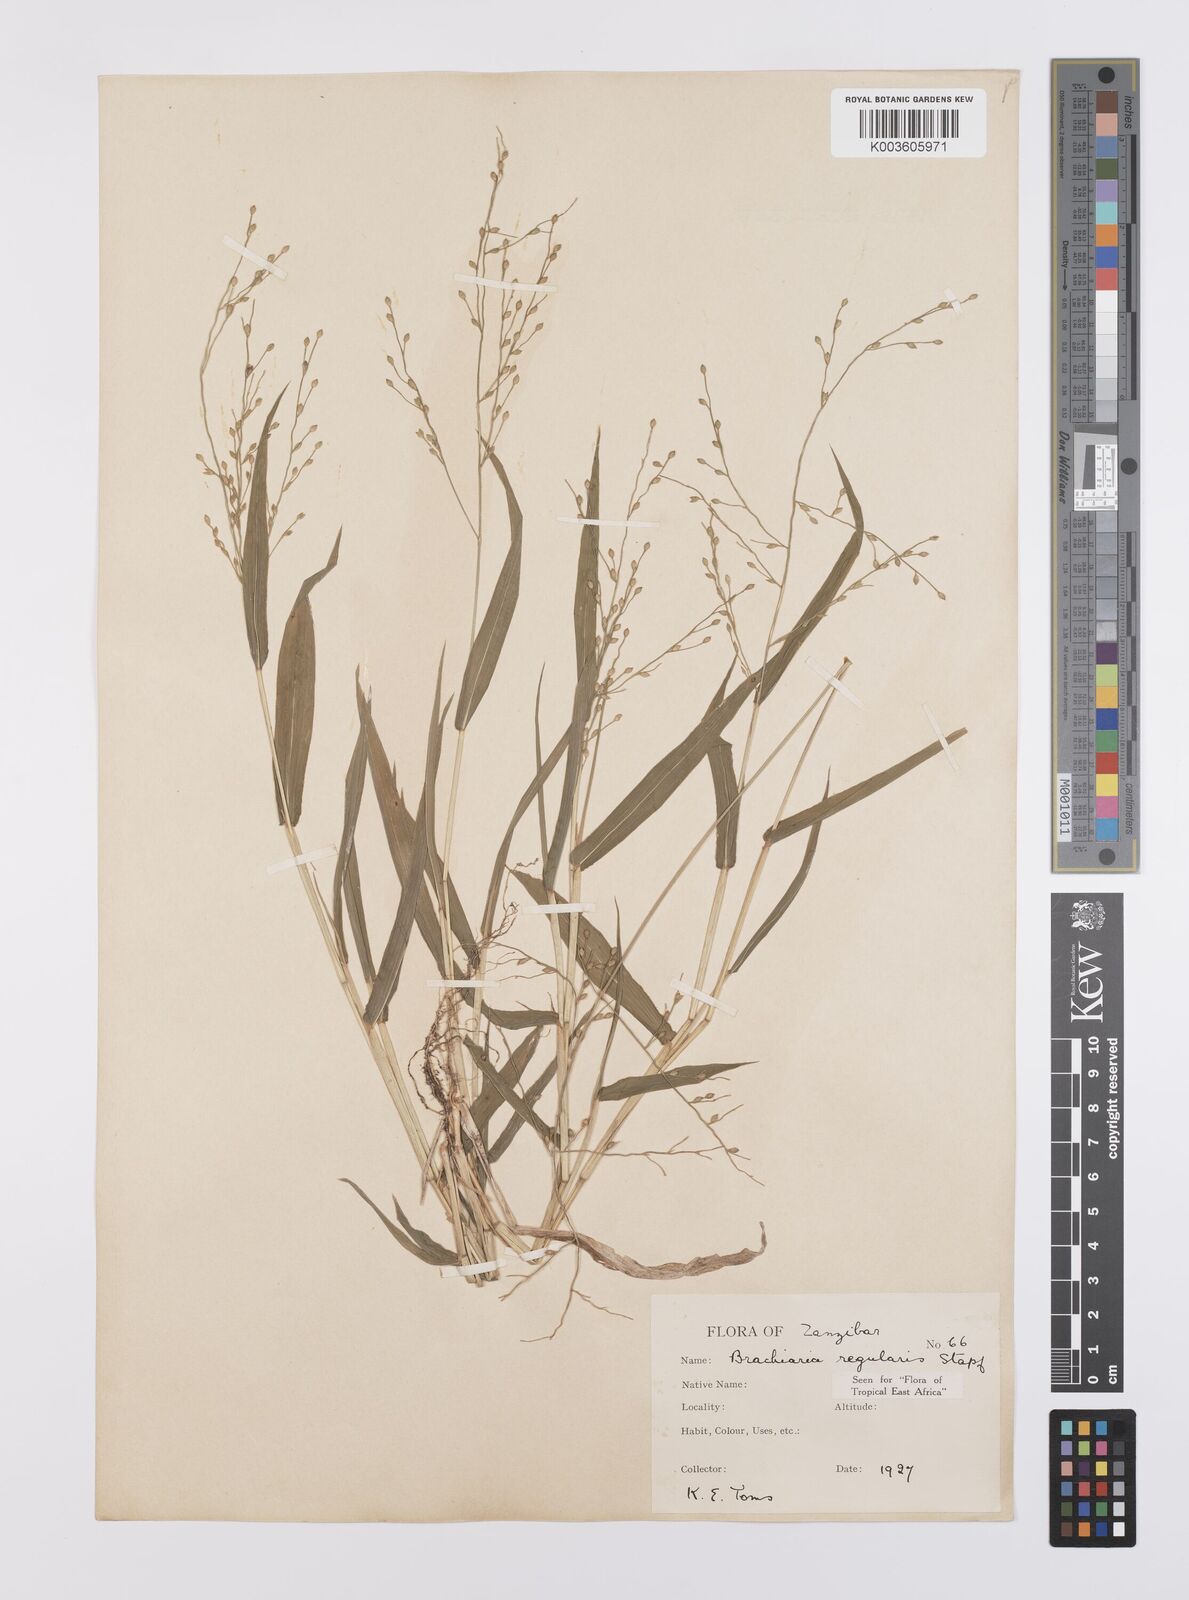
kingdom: Plantae
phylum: Tracheophyta
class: Liliopsida
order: Poales
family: Poaceae
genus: Urochloa
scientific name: Urochloa deflexa
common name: Guinea millet
